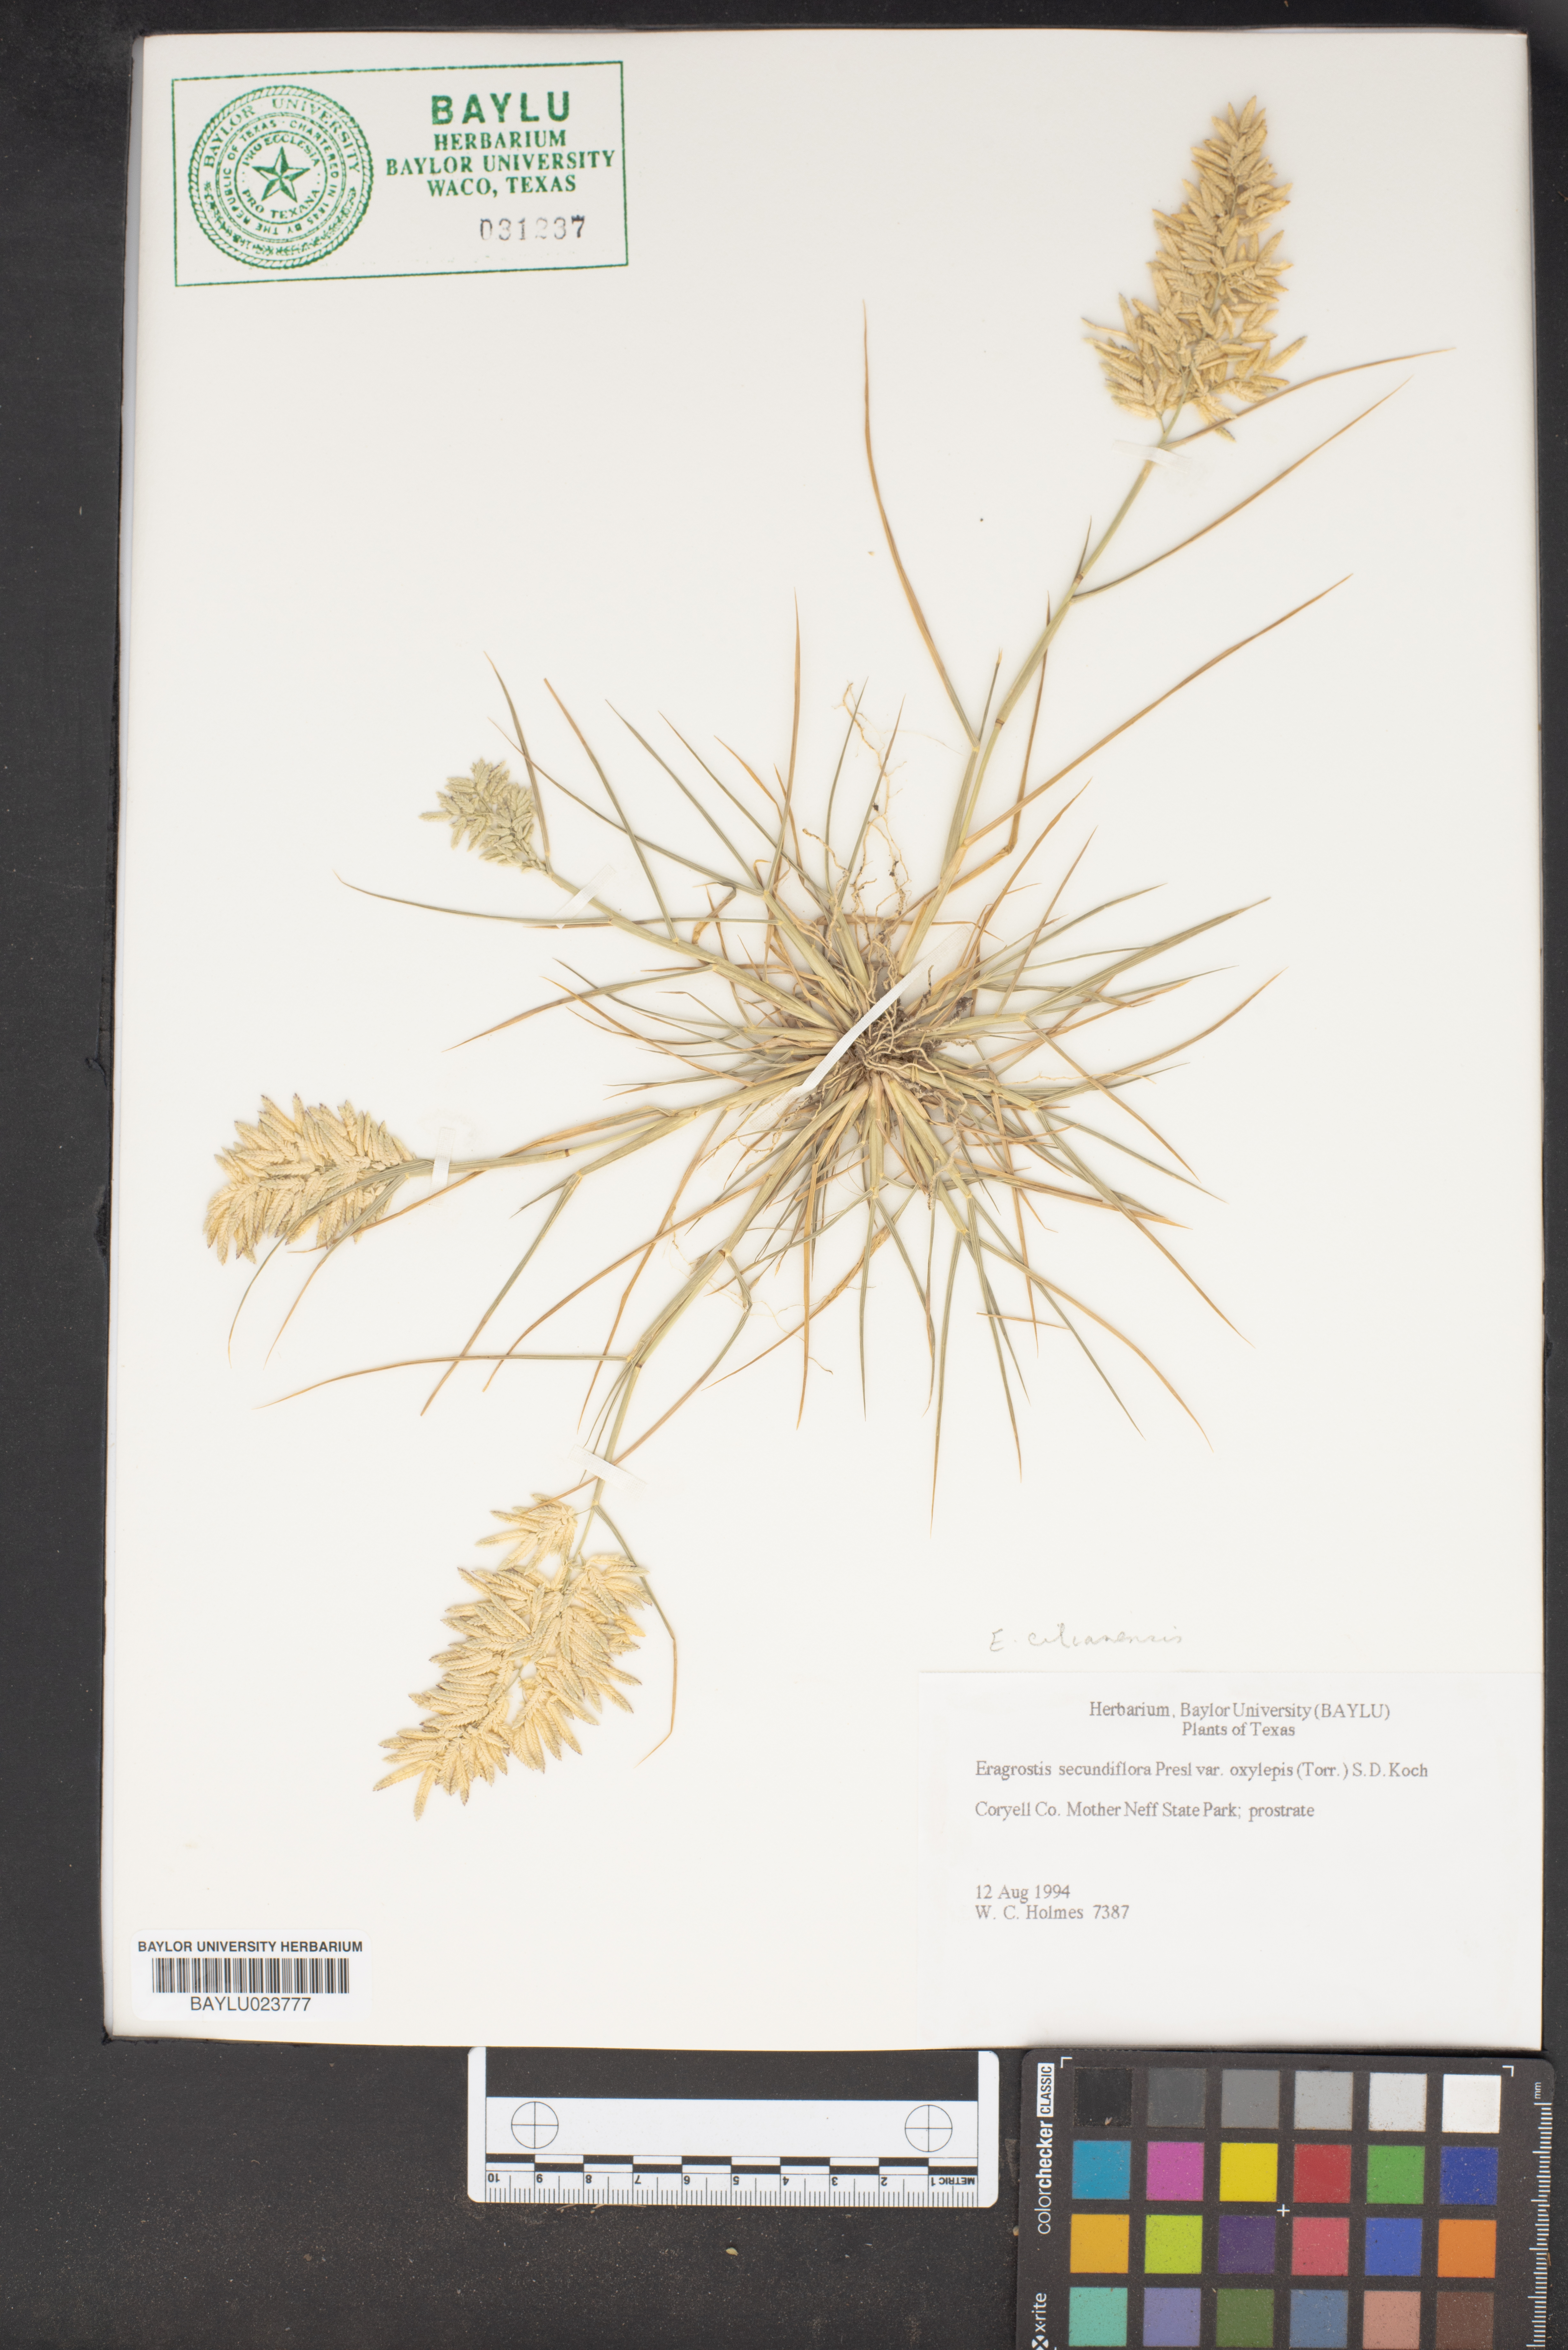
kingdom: Plantae
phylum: Tracheophyta
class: Liliopsida
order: Poales
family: Poaceae
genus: Eragrostis
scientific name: Eragrostis secundiflora
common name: Red love grass
